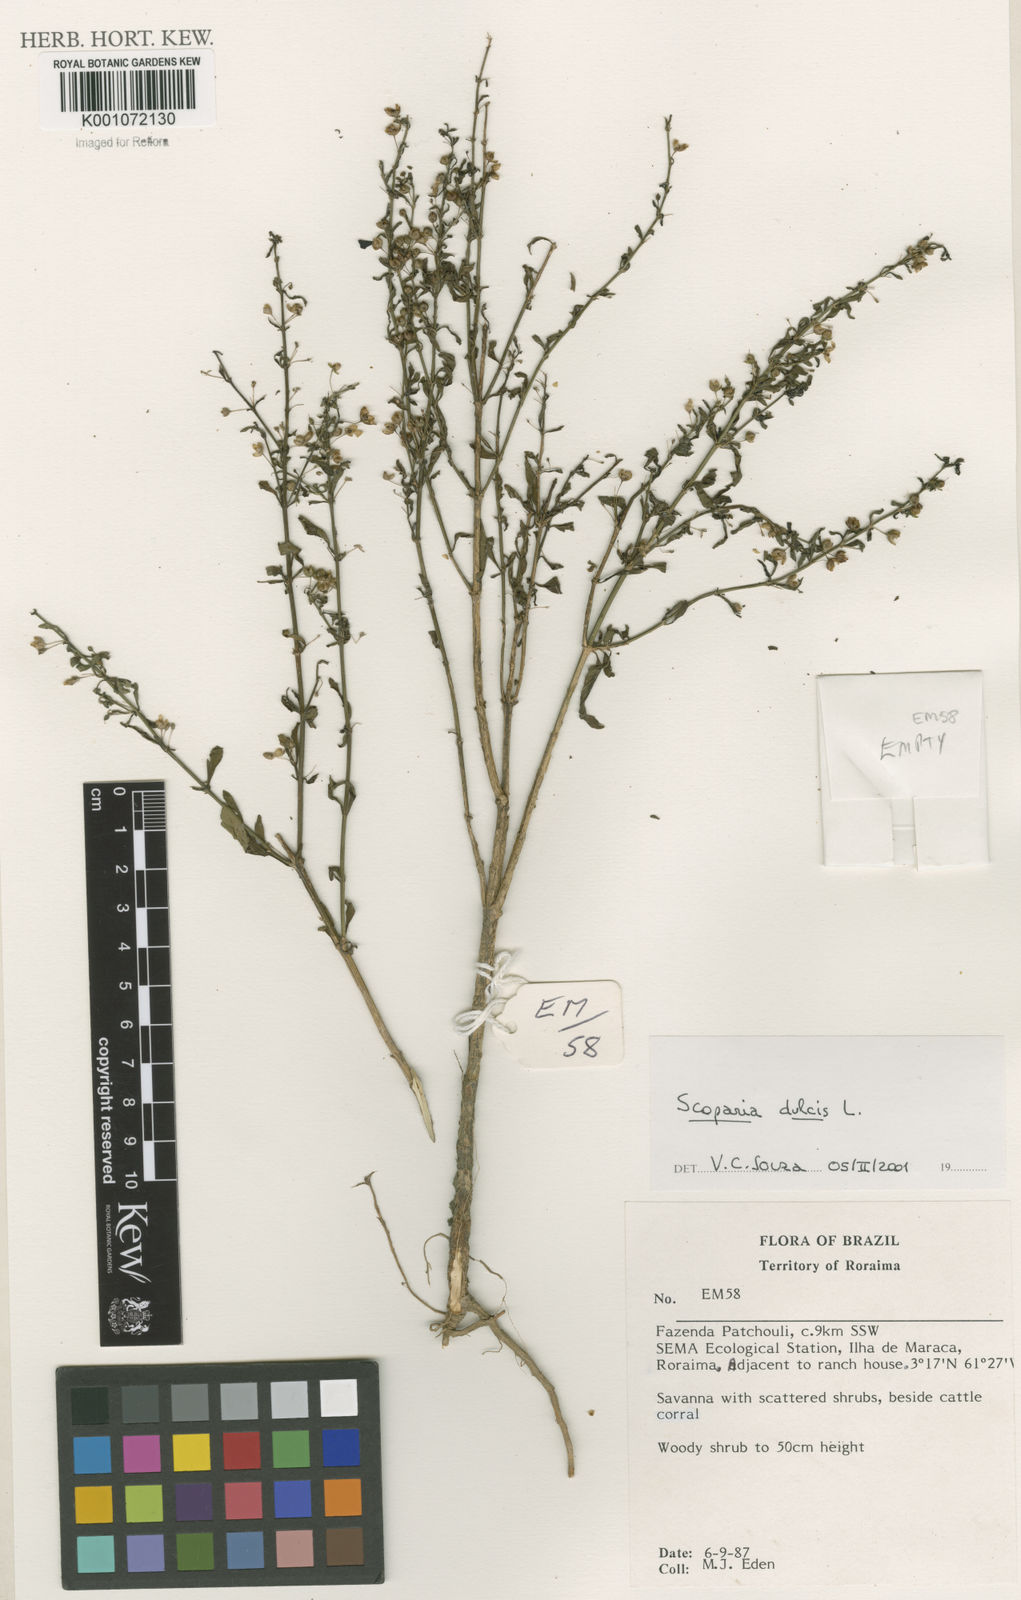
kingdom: Plantae
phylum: Tracheophyta
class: Magnoliopsida
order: Lamiales
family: Plantaginaceae
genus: Scoparia
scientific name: Scoparia dulcis
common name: Scoparia-weed
